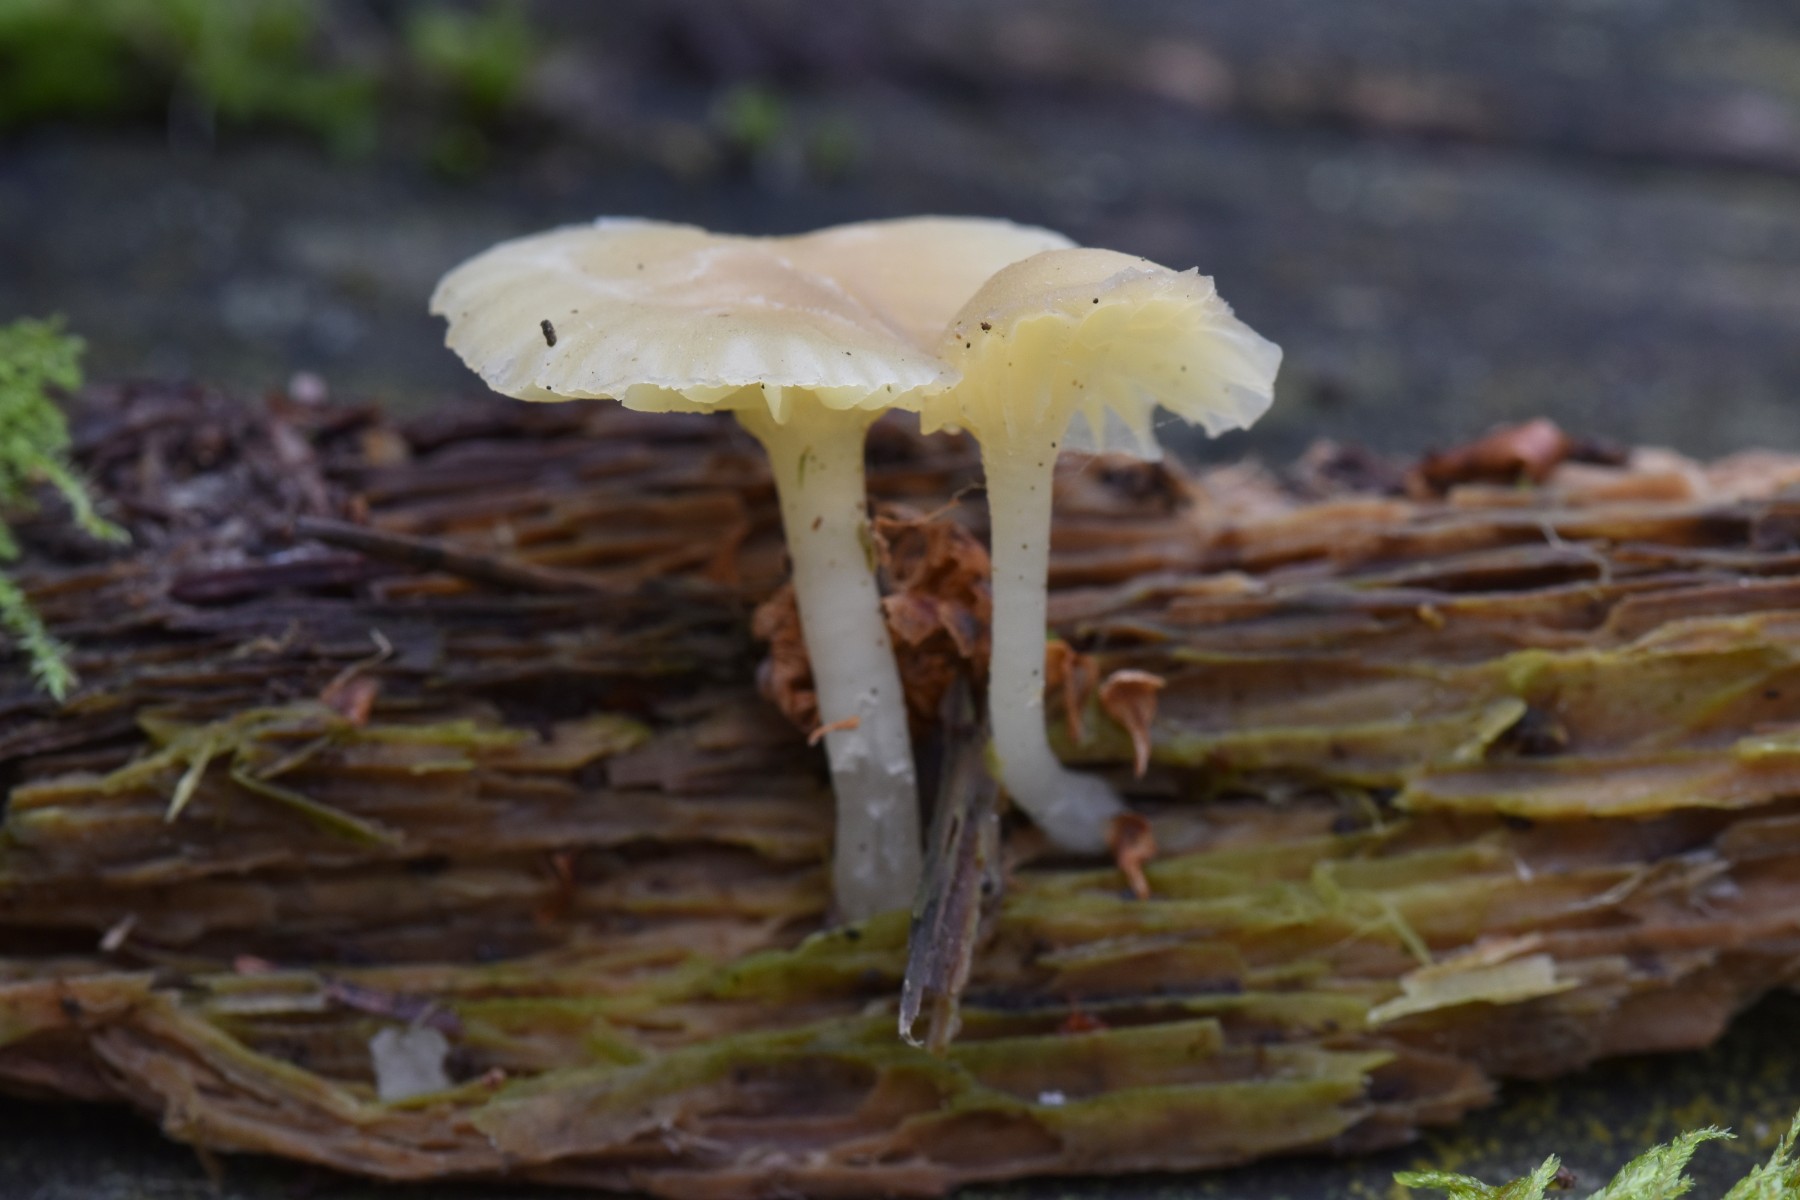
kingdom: Fungi
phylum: Basidiomycota
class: Agaricomycetes
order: Agaricales
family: Hygrophoraceae
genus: Chrysomphalina
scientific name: Chrysomphalina grossula
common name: stød-gyldenblad
